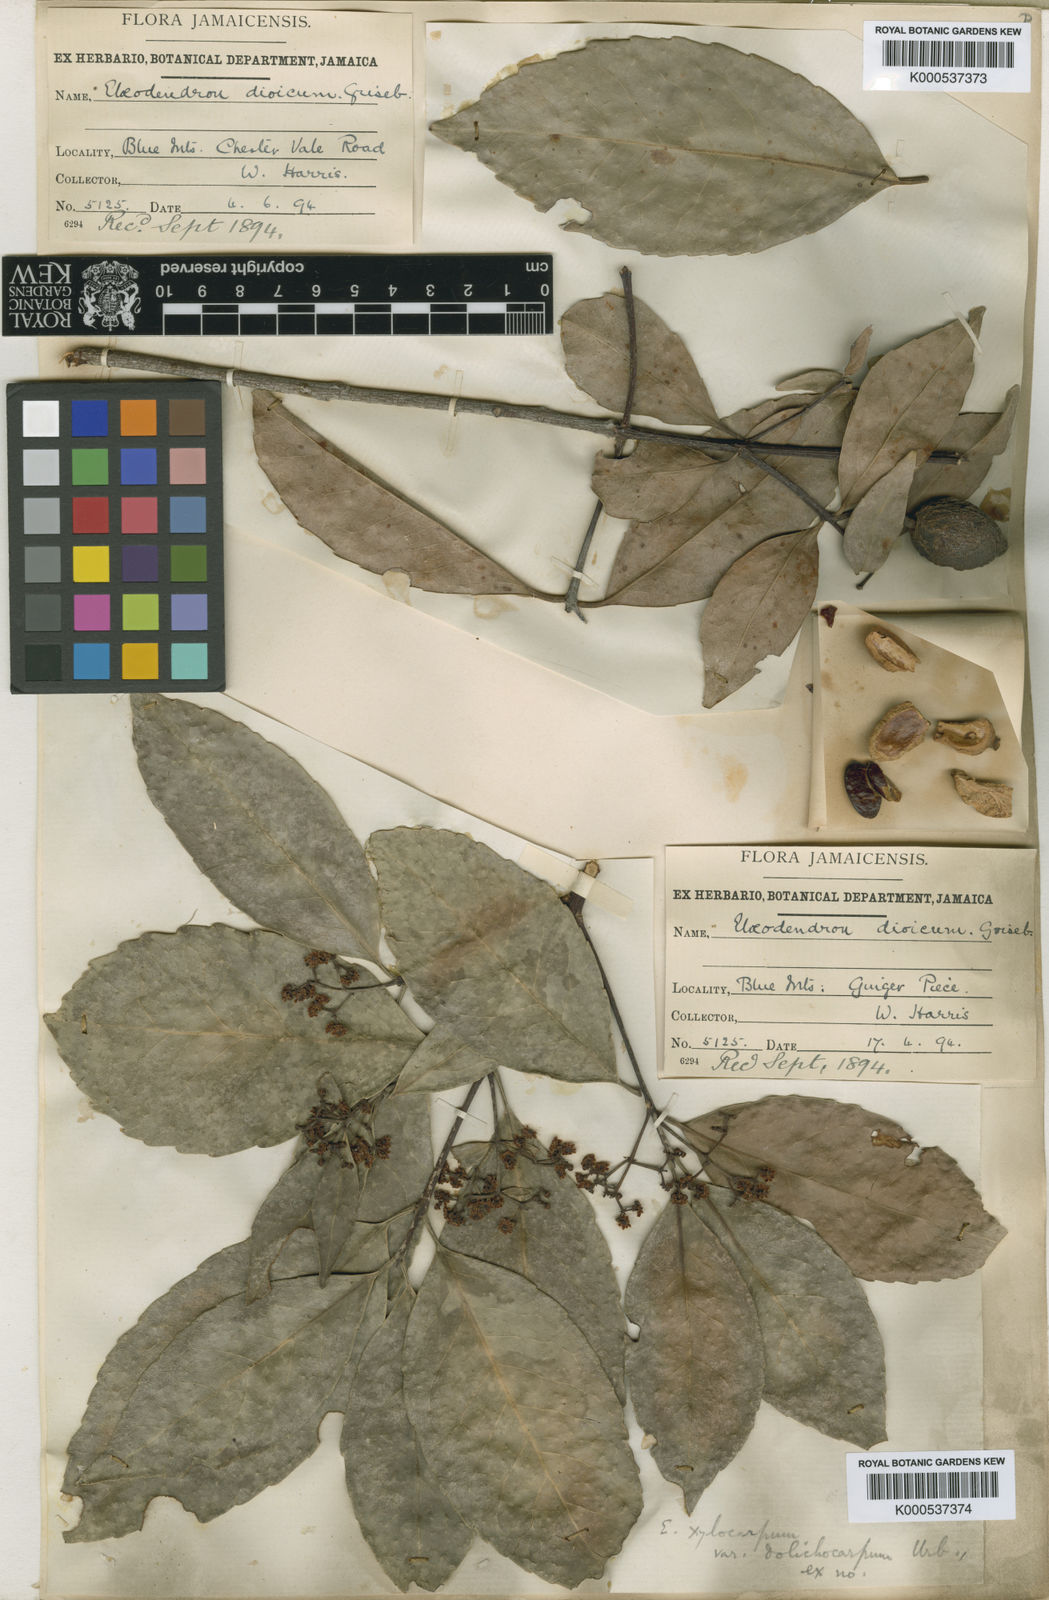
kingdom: Plantae
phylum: Tracheophyta
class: Magnoliopsida
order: Celastrales
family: Celastraceae
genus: Elaeodendron
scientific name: Elaeodendron xylocarpum
